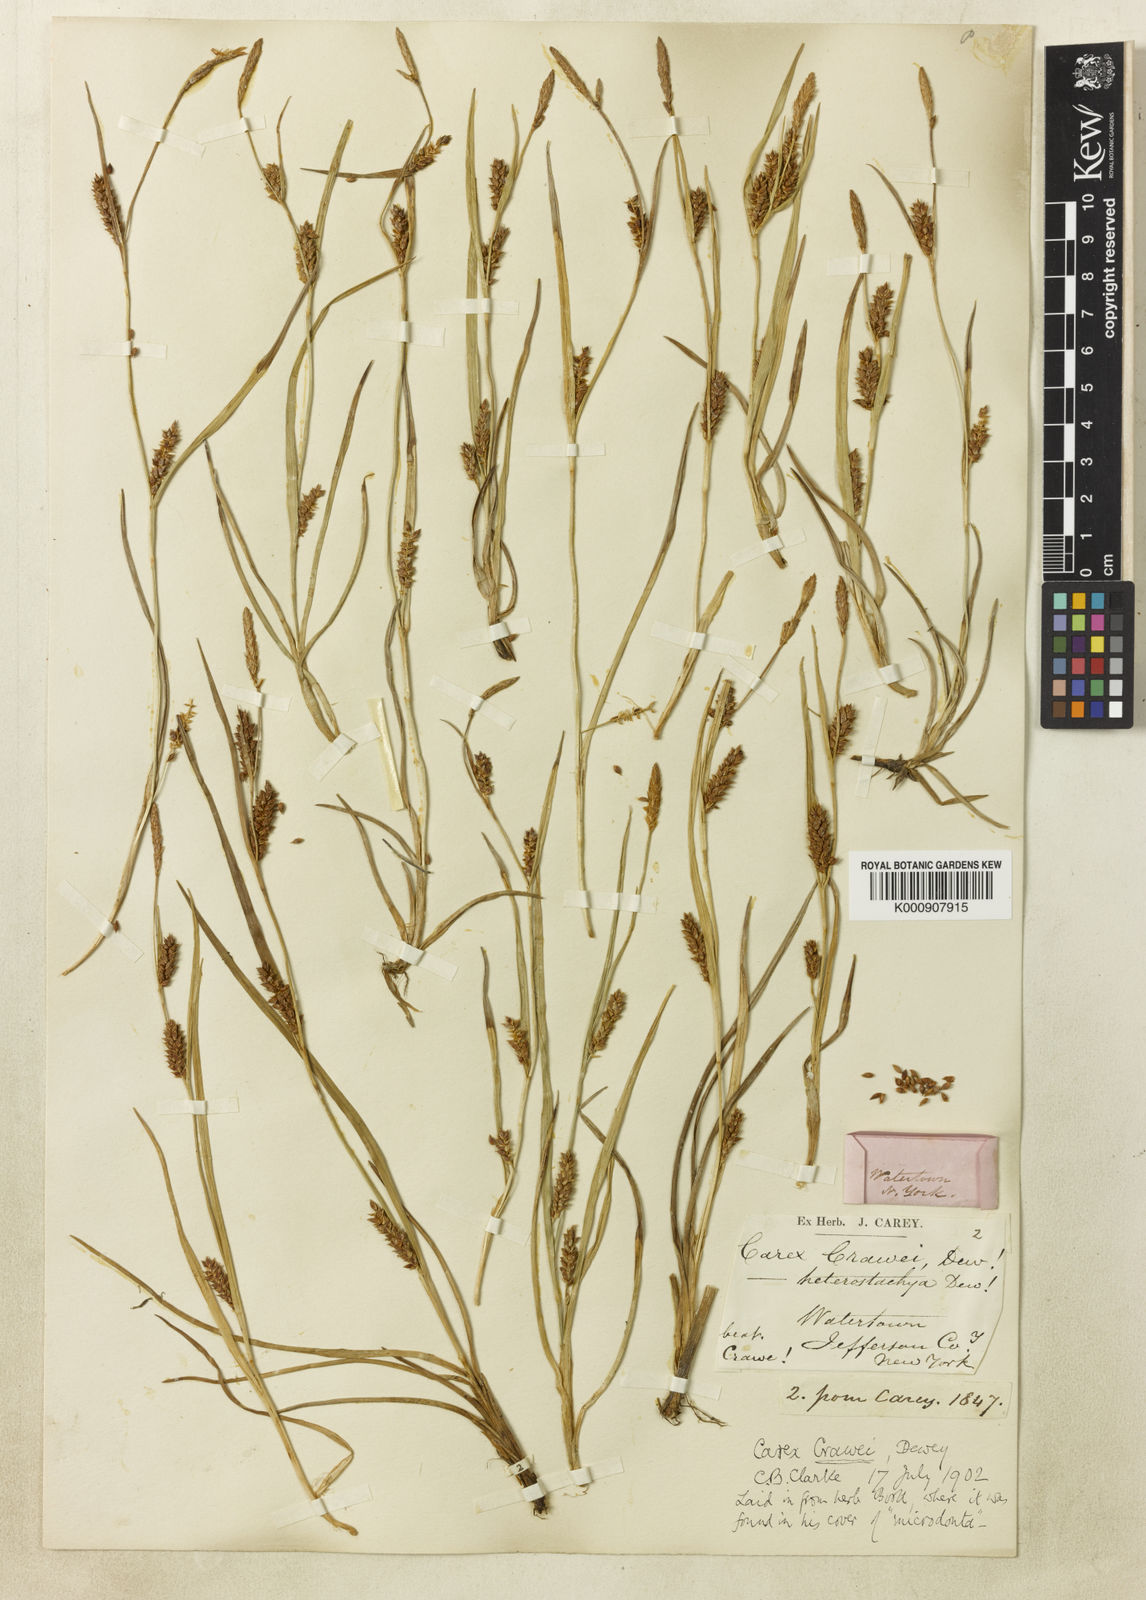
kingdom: Plantae
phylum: Tracheophyta
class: Liliopsida
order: Poales
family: Cyperaceae
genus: Carex
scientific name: Carex crawei
